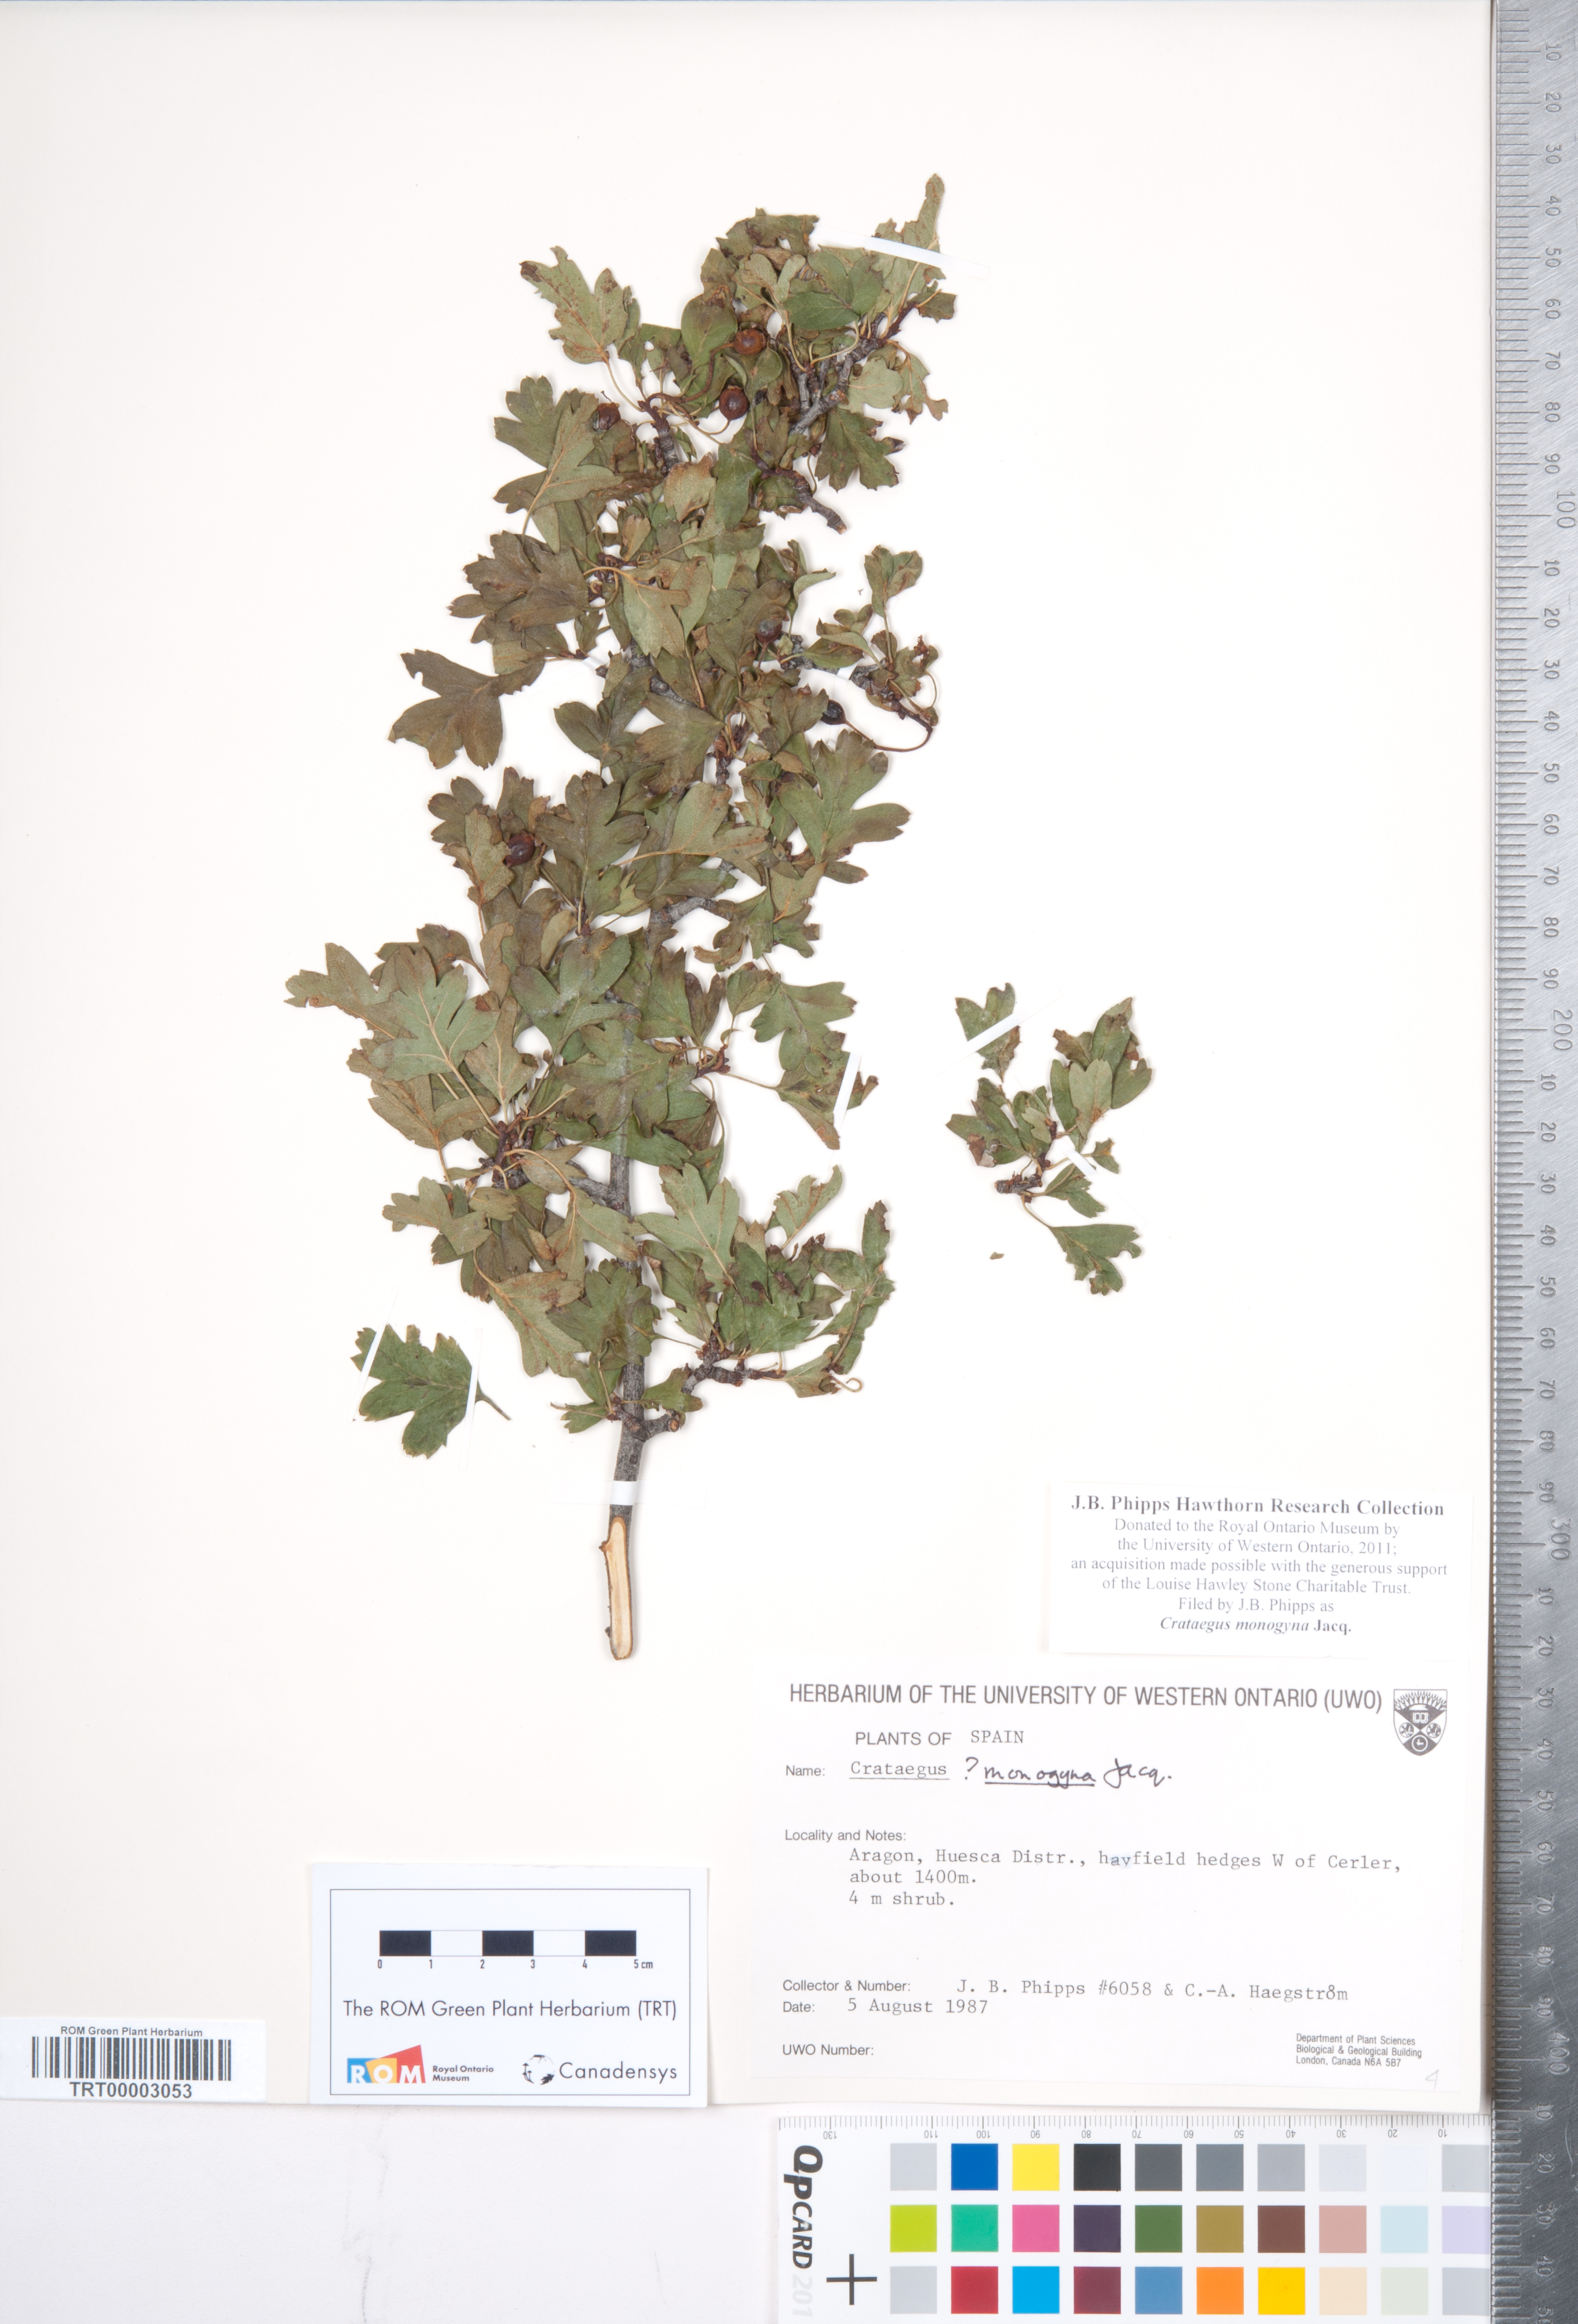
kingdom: Plantae
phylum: Tracheophyta
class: Magnoliopsida
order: Rosales
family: Rosaceae
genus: Crataegus
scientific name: Crataegus monogyna
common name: Hawthorn
